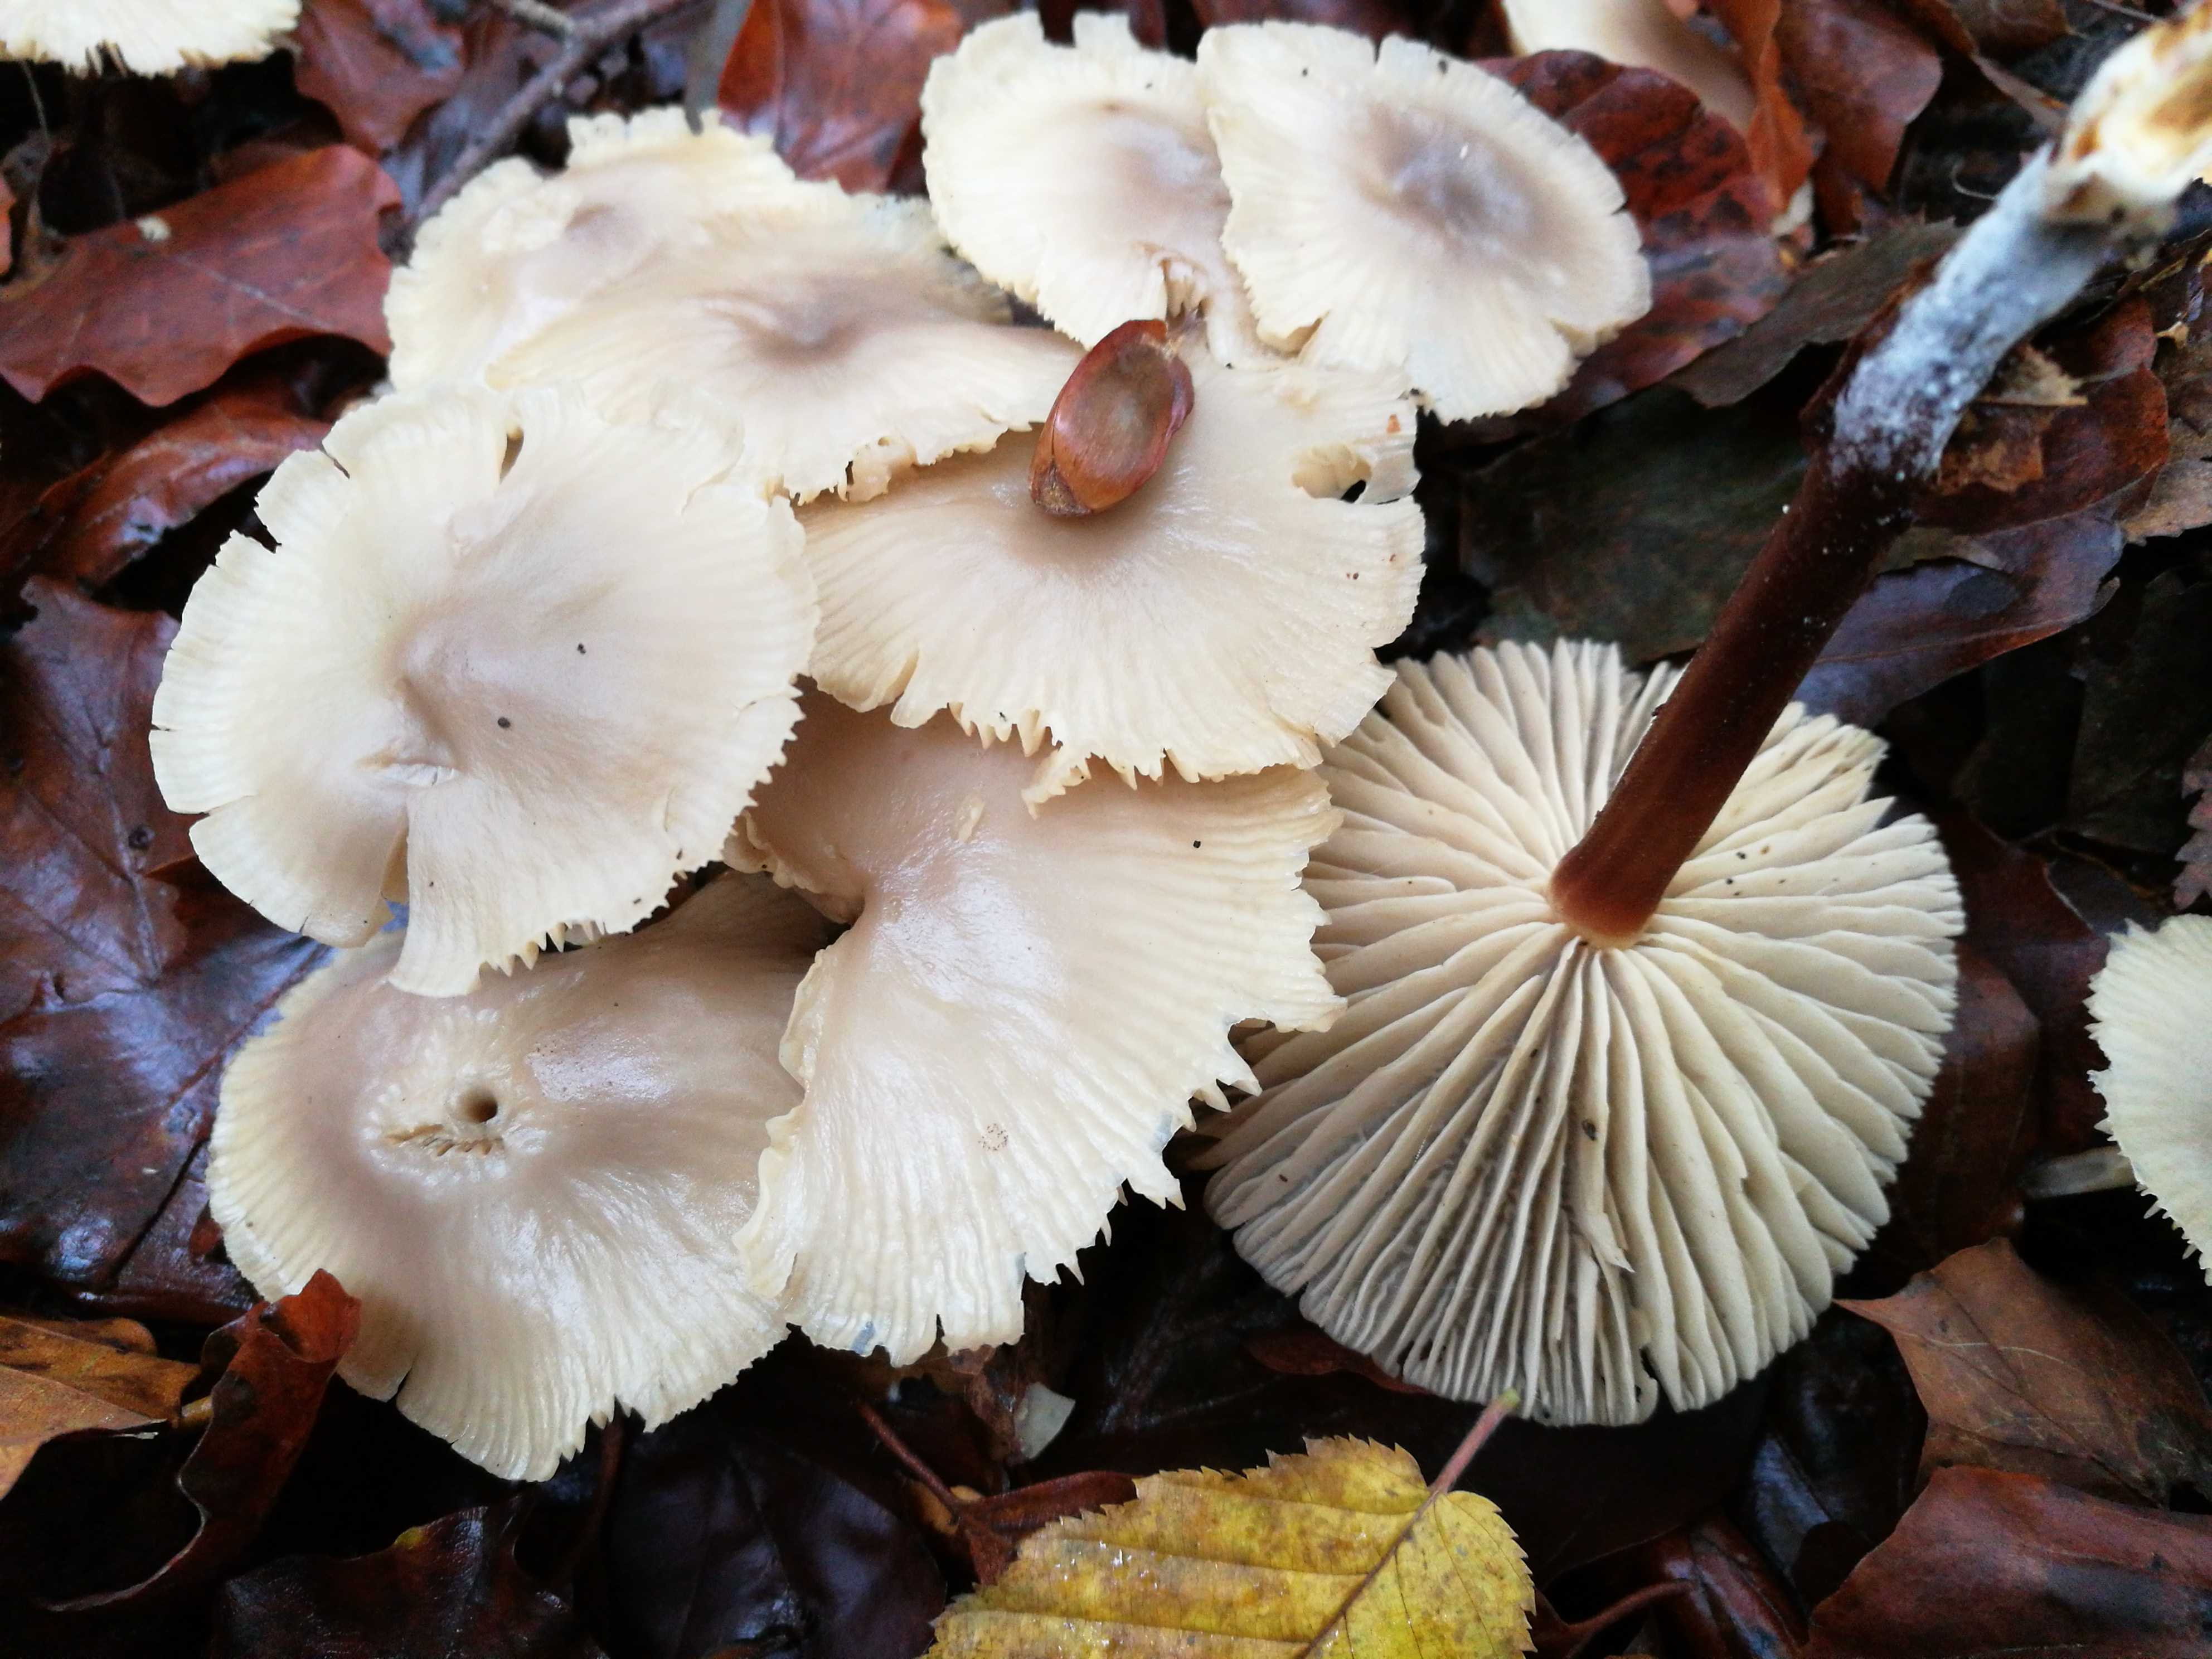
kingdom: Fungi
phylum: Basidiomycota
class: Agaricomycetes
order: Agaricales
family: Marasmiaceae
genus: Marasmius
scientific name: Marasmius wynneae
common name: hvælvet bruskhat
